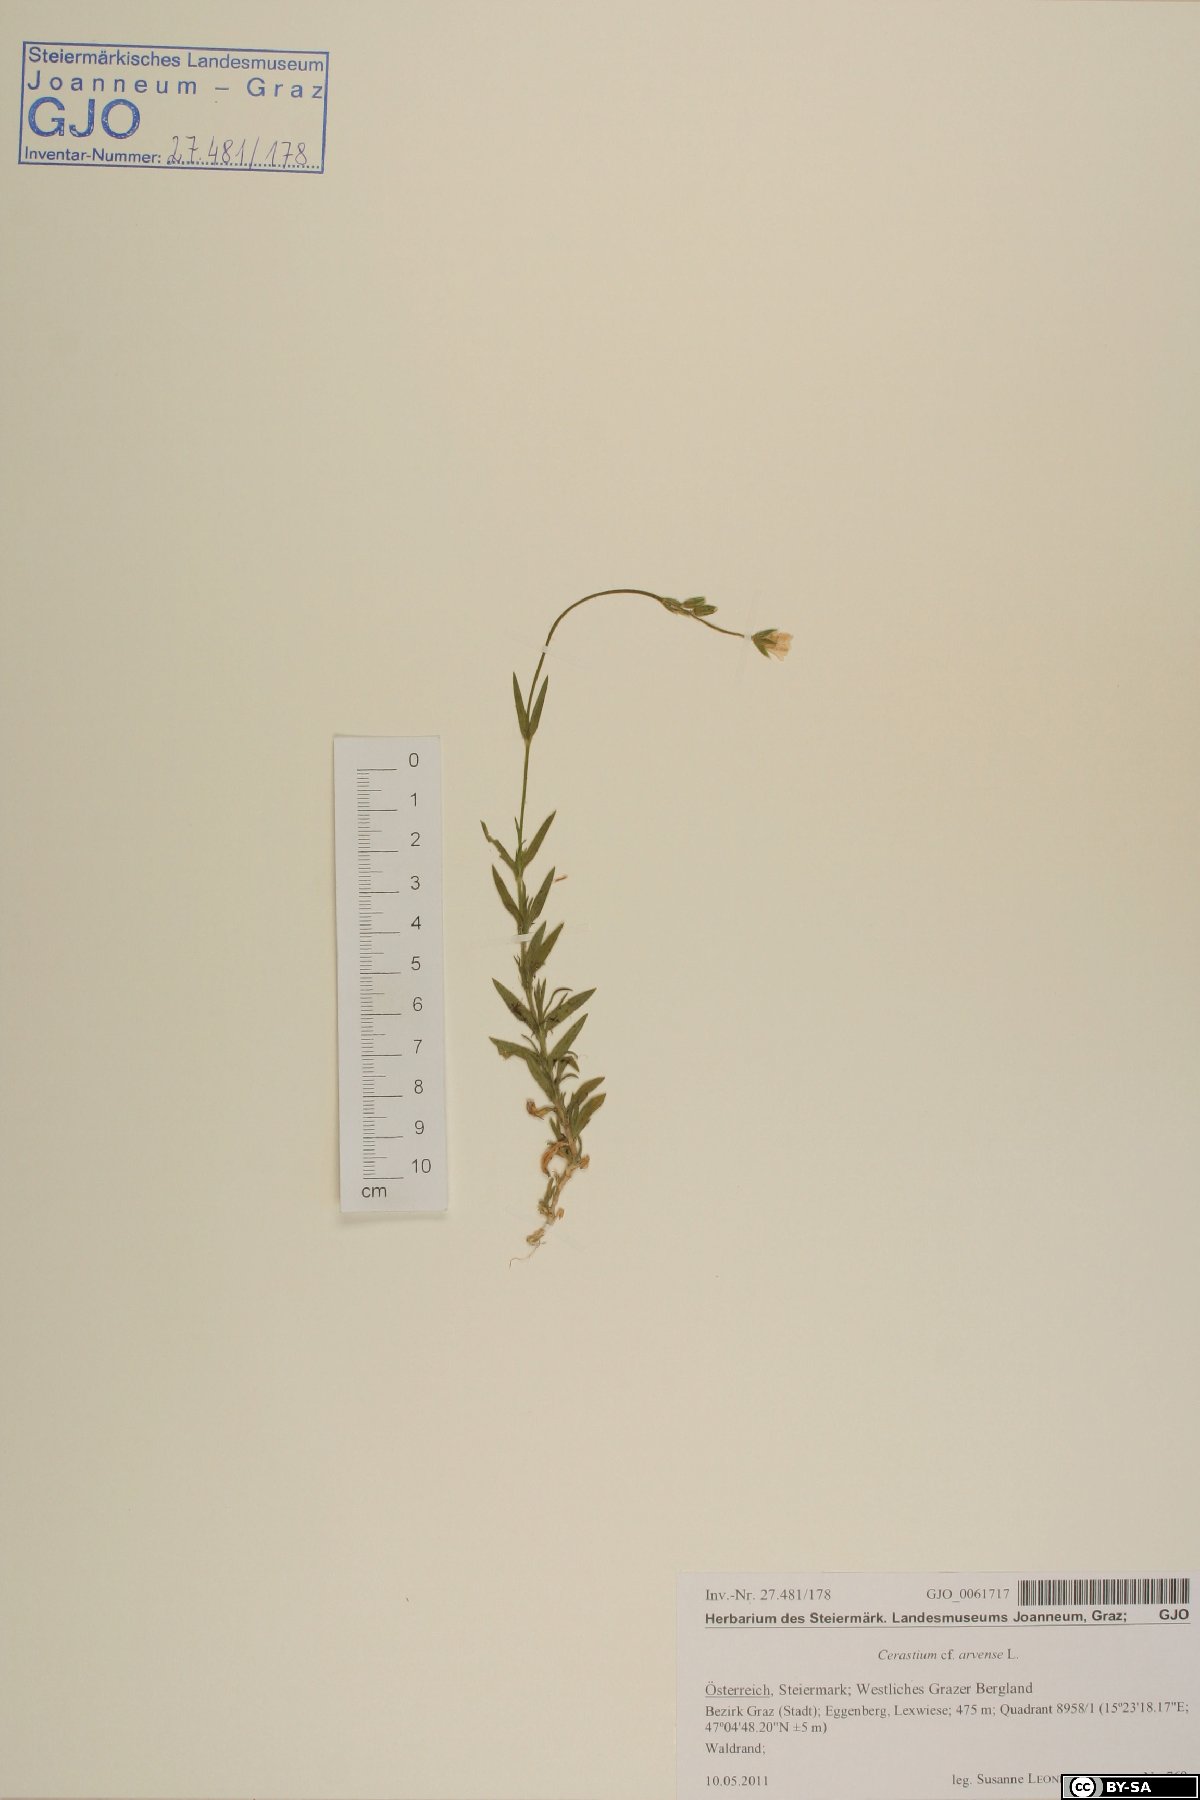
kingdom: Plantae
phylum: Tracheophyta
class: Magnoliopsida
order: Caryophyllales
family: Caryophyllaceae
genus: Cerastium
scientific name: Cerastium arvense
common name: Field mouse-ear
